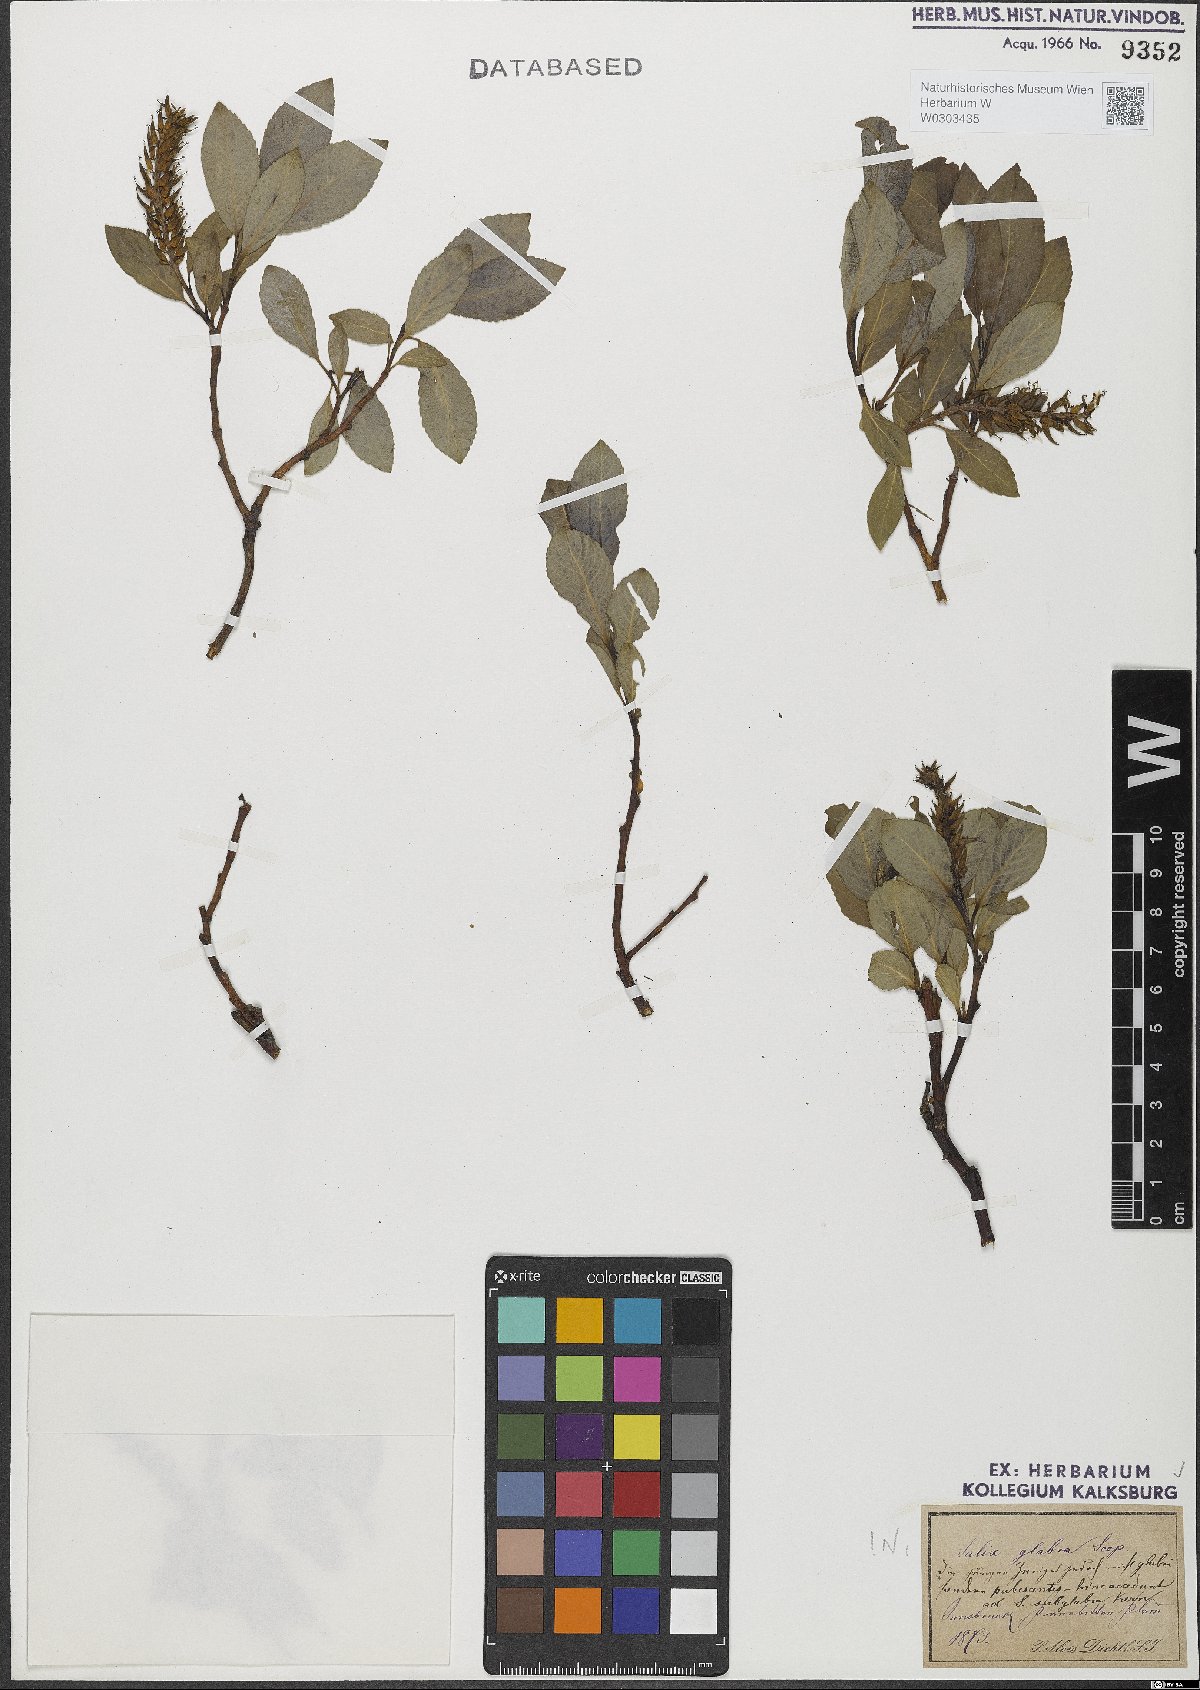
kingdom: Plantae
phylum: Tracheophyta
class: Magnoliopsida
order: Malpighiales
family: Salicaceae
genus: Salix
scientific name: Salix glabra
